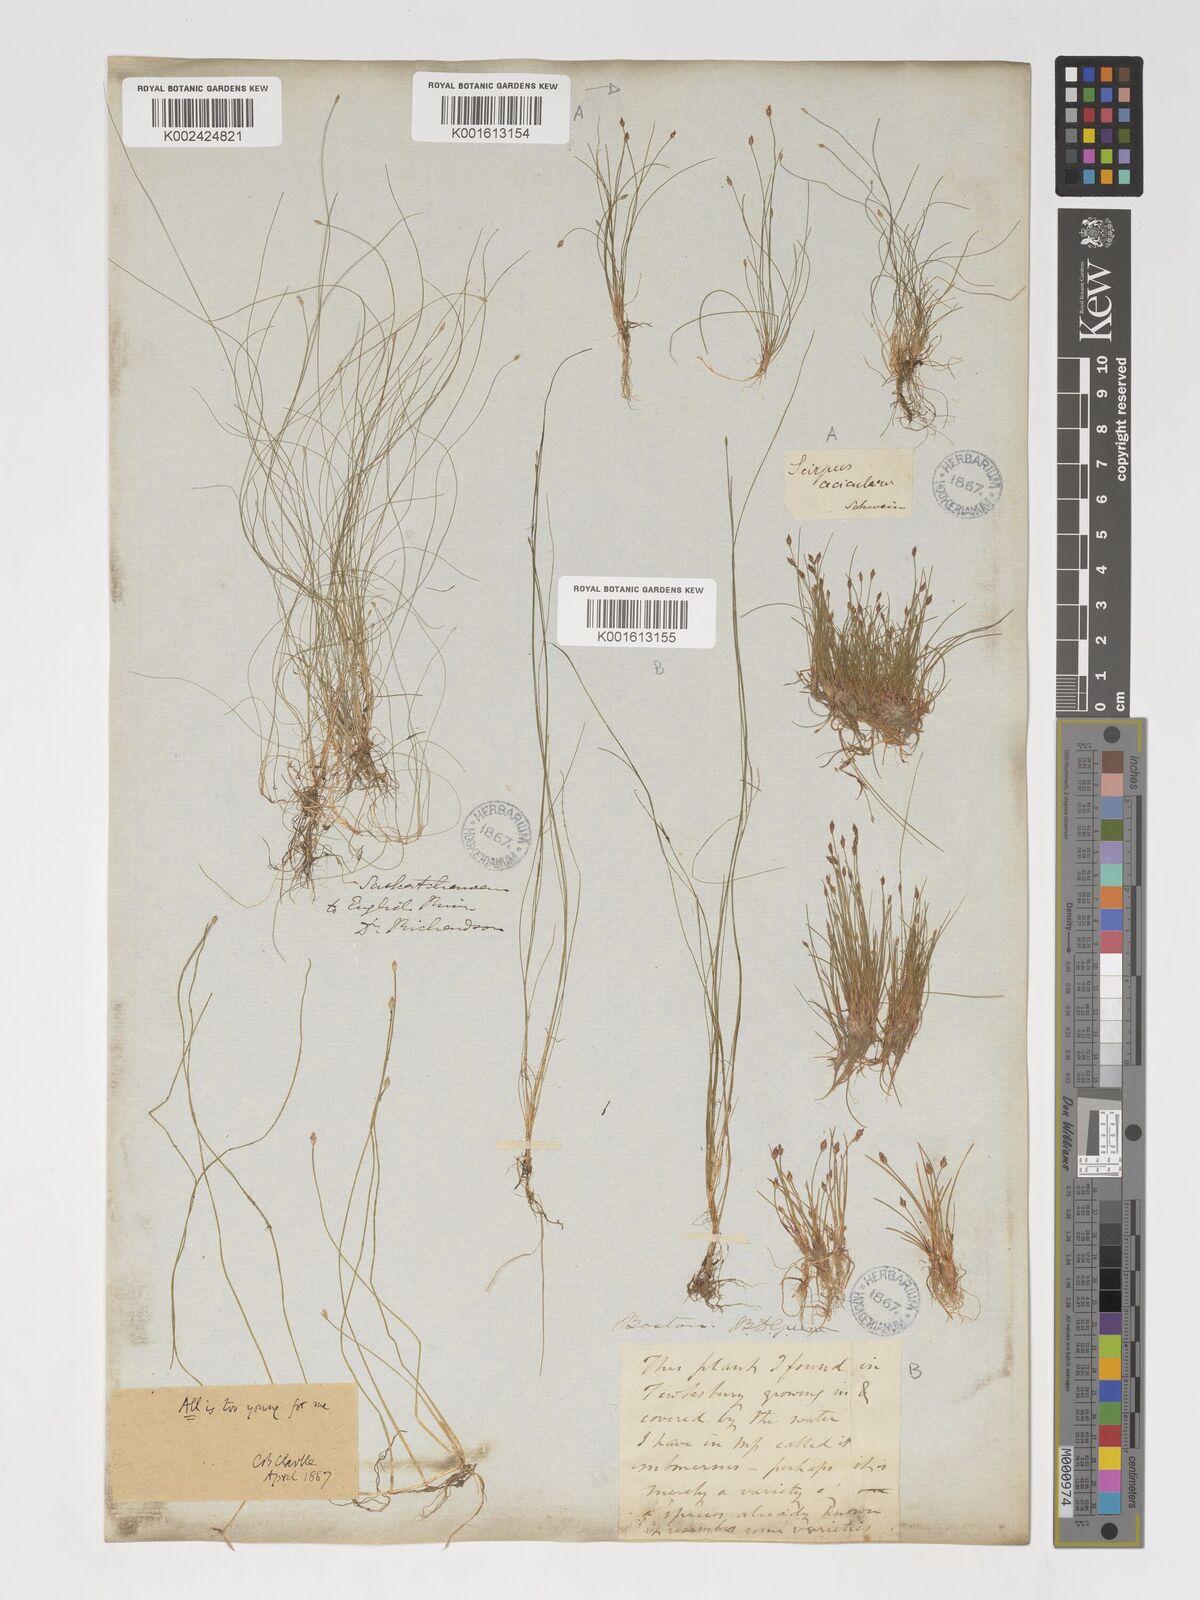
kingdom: Plantae
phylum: Tracheophyta
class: Liliopsida
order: Poales
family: Cyperaceae
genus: Eleocharis
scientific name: Eleocharis acicularis
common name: Needle spike-rush
